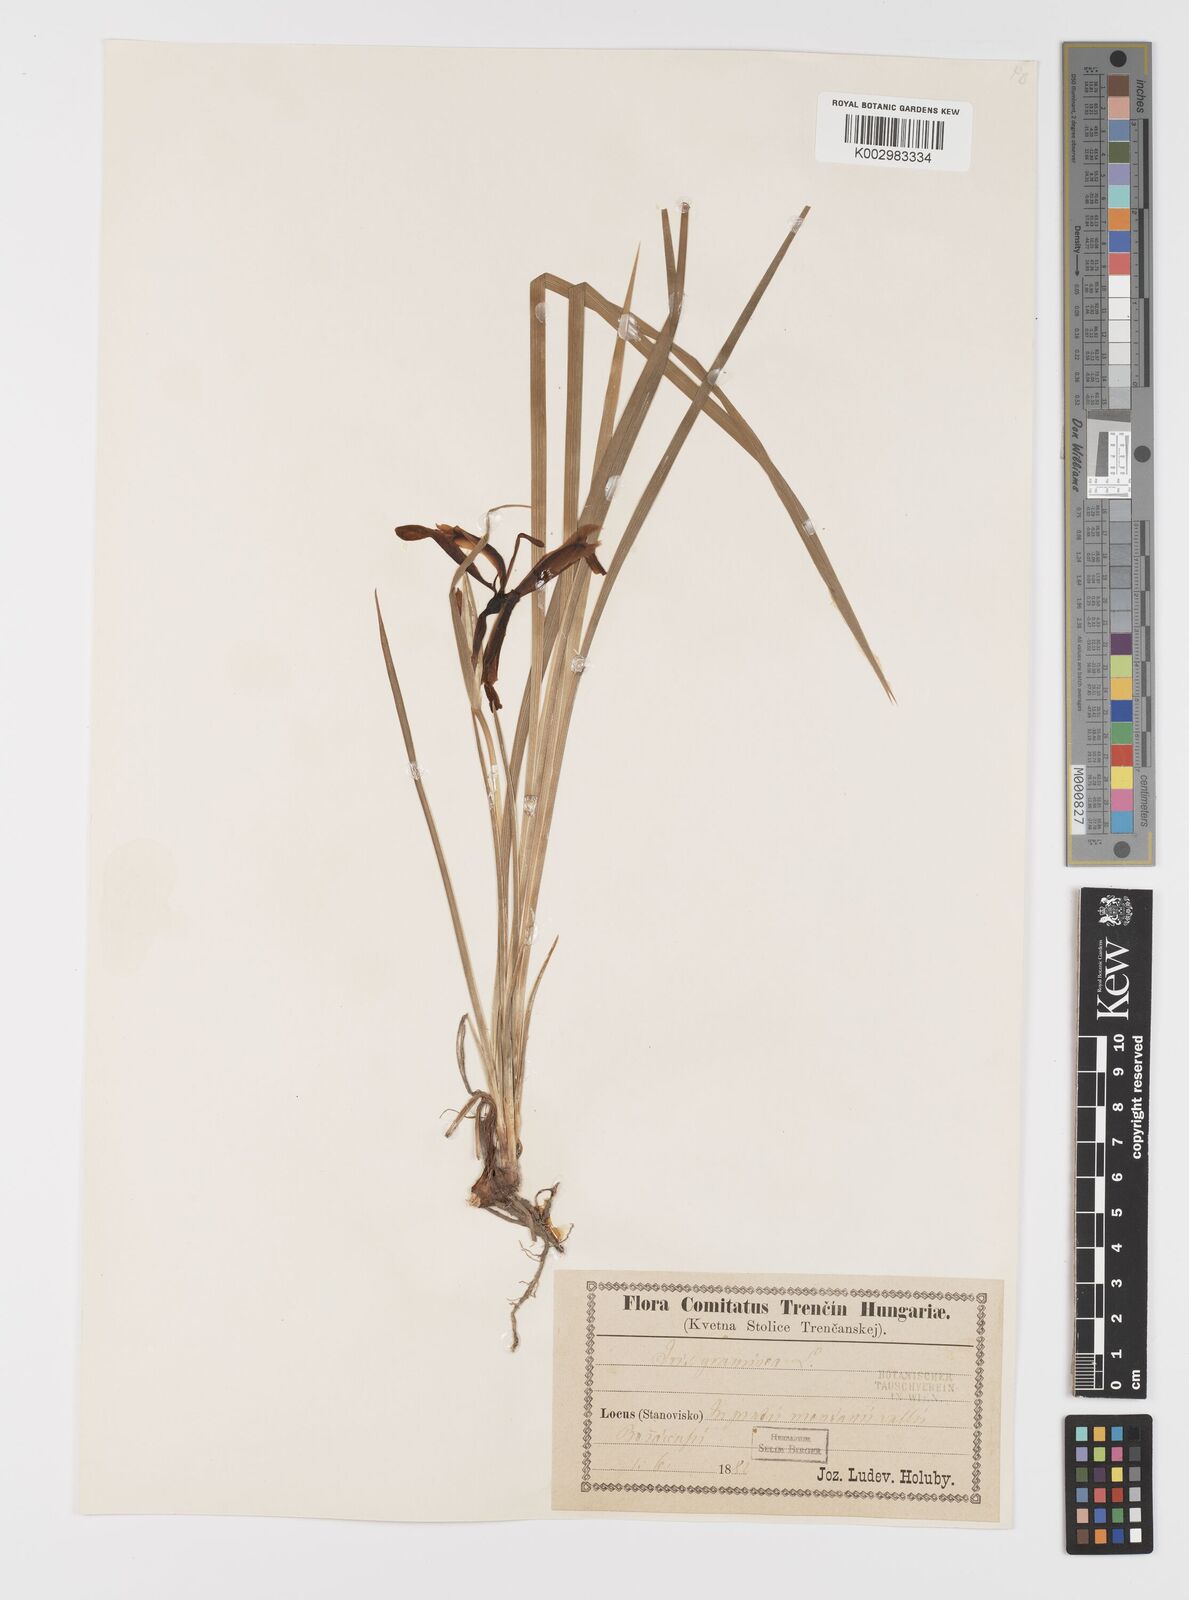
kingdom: Plantae
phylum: Tracheophyta
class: Liliopsida
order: Asparagales
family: Iridaceae
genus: Iris
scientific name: Iris graminea
